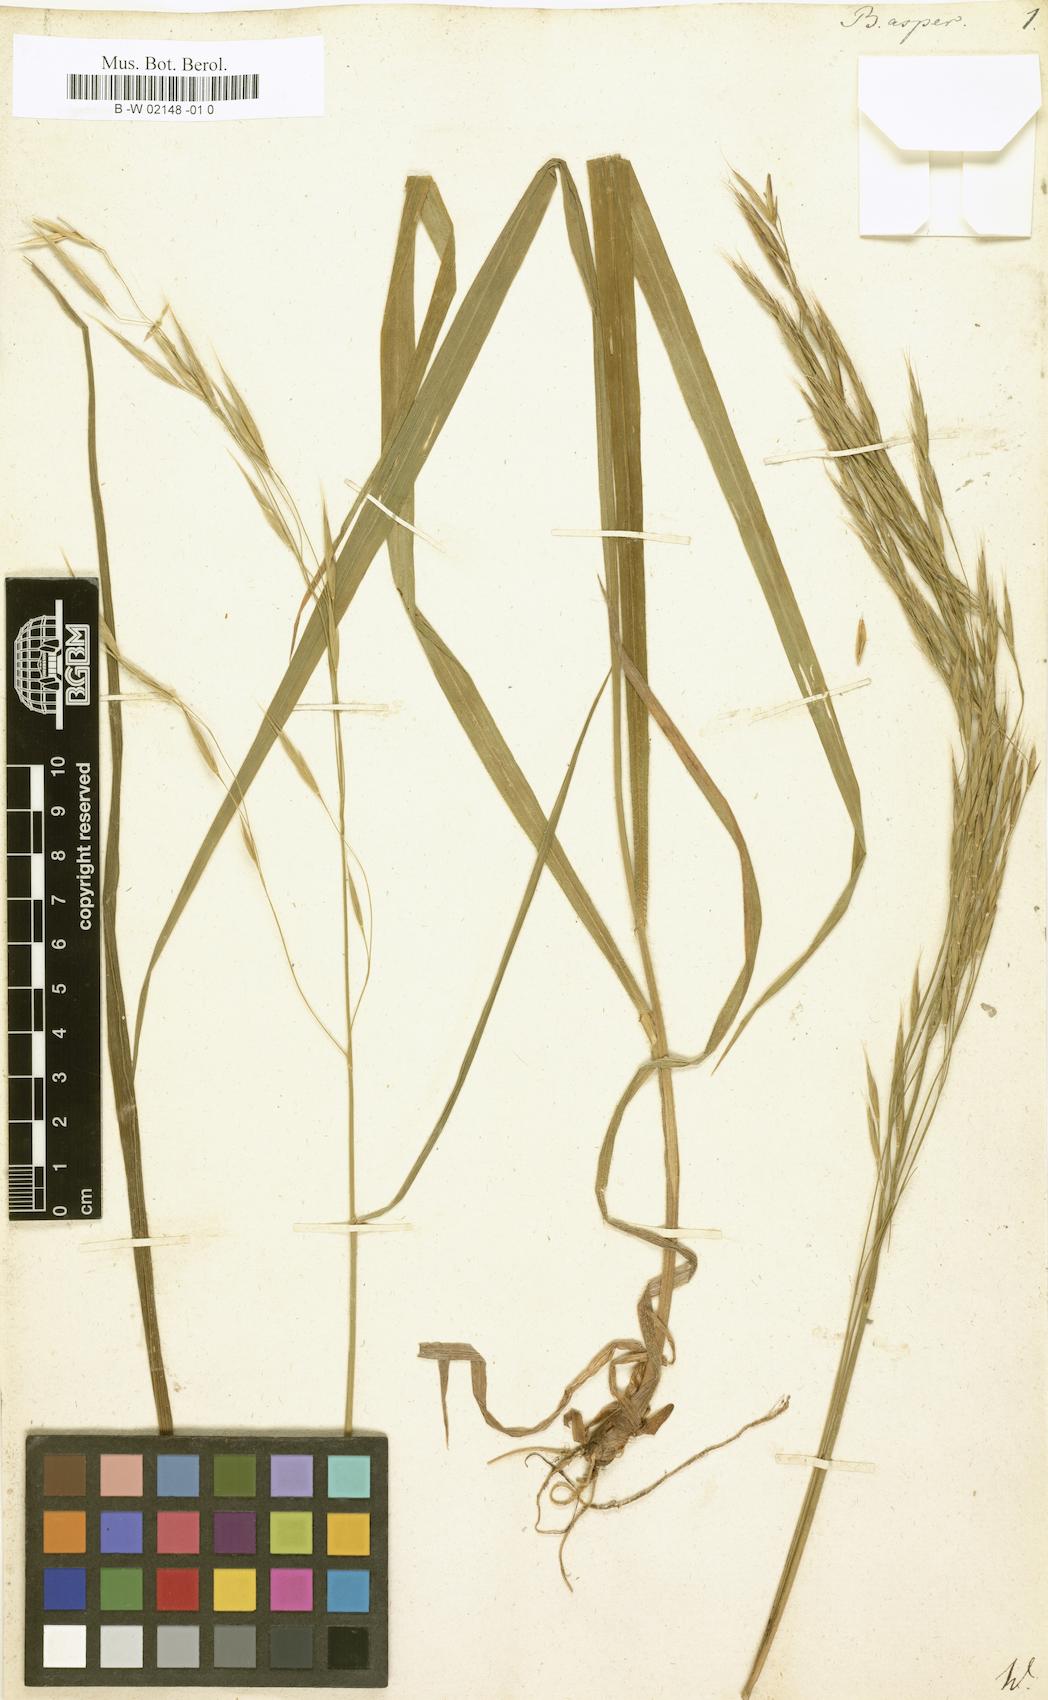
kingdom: Plantae
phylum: Tracheophyta
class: Liliopsida
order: Poales
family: Poaceae
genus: Bromus
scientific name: Bromus
